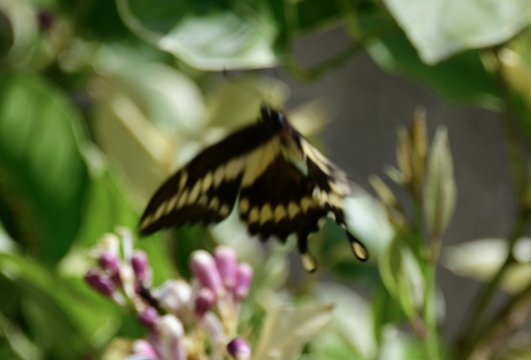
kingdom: Animalia
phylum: Arthropoda
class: Insecta
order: Lepidoptera
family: Papilionidae
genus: Papilio
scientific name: Papilio cresphontes
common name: Eastern Giant Swallowtail
